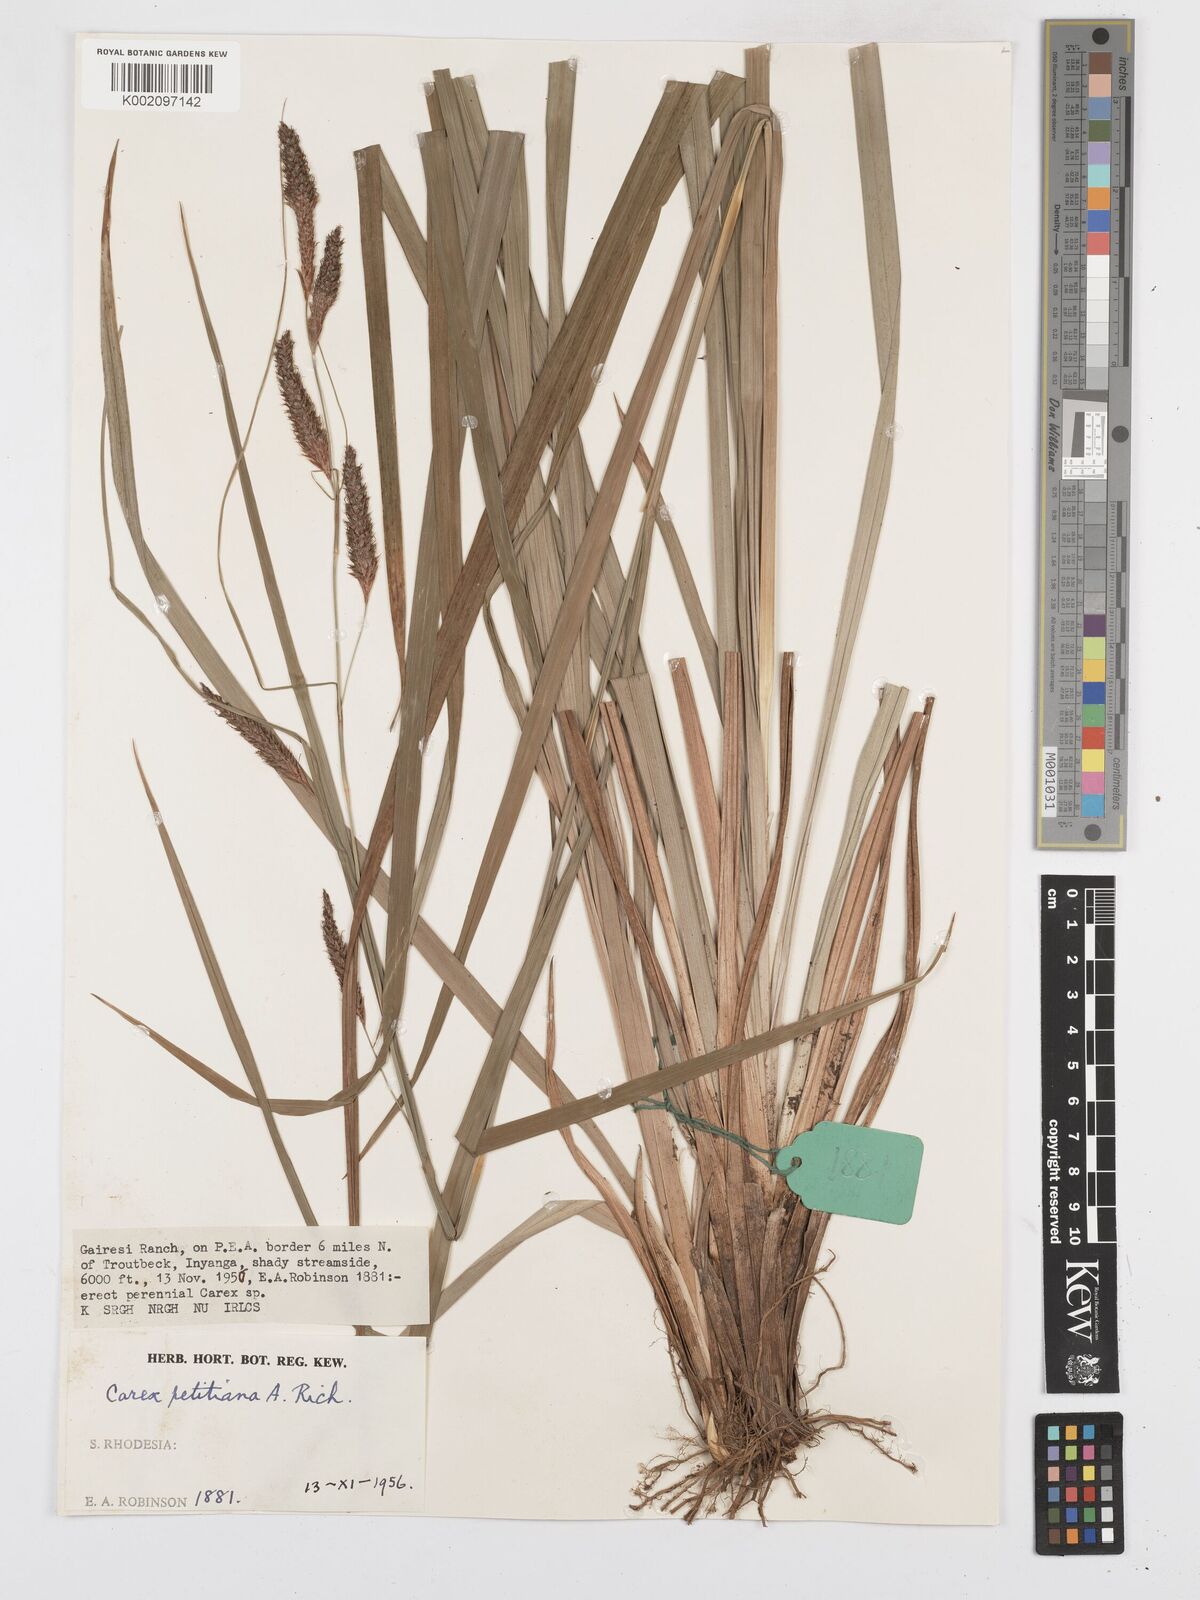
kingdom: Plantae
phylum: Tracheophyta
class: Liliopsida
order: Poales
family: Cyperaceae
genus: Carex
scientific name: Carex petitiana
